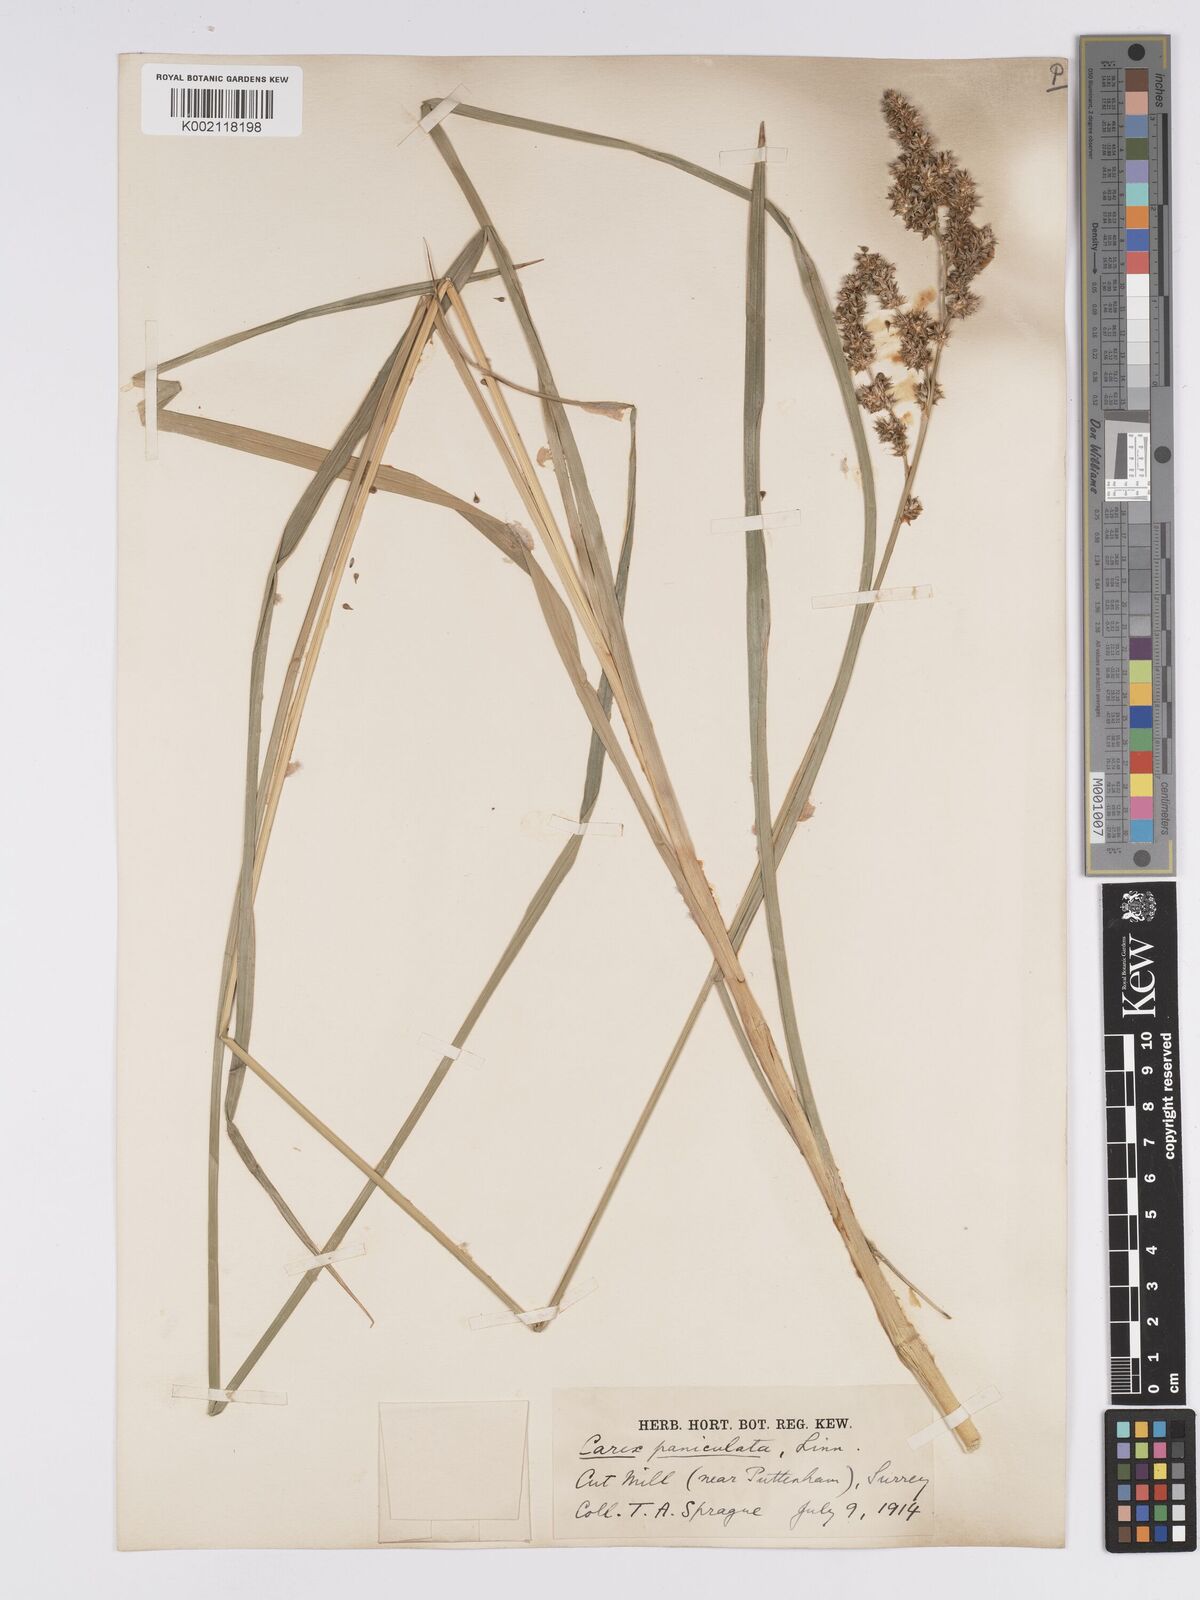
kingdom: Plantae
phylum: Tracheophyta
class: Liliopsida
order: Poales
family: Cyperaceae
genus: Carex
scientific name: Carex paniculata
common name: Greater tussock-sedge
